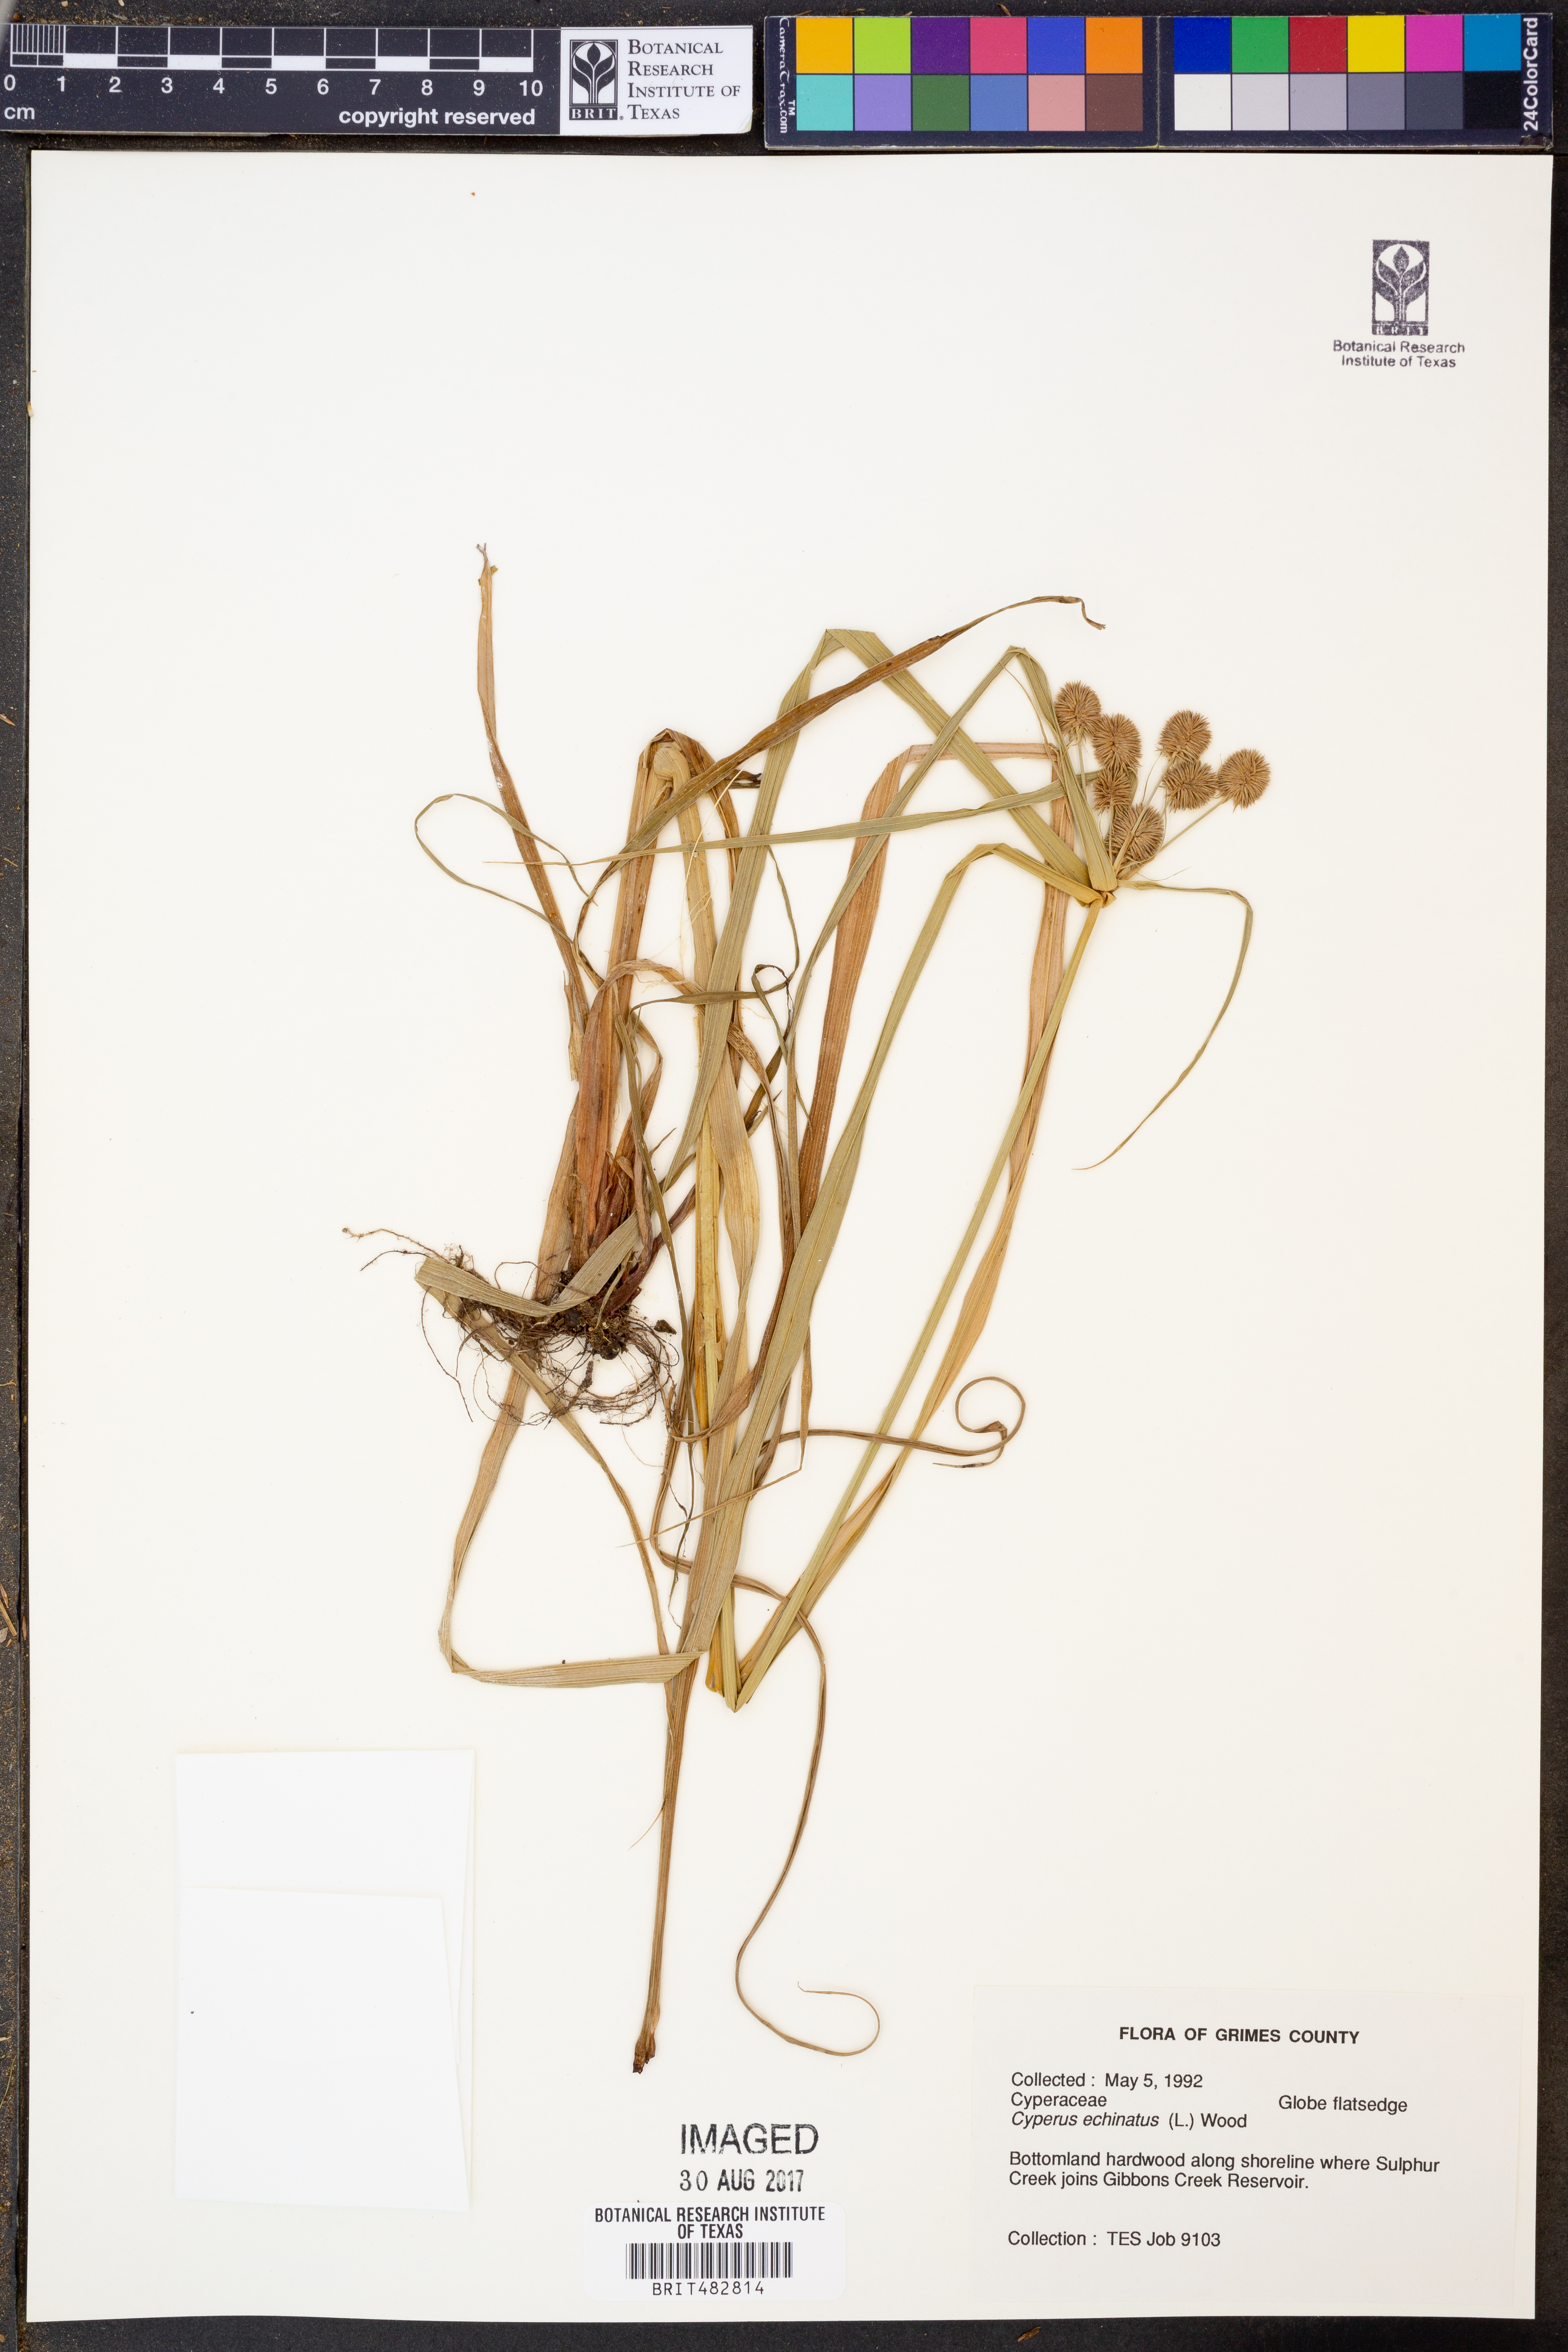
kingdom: Plantae
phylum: Tracheophyta
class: Liliopsida
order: Poales
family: Cyperaceae
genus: Cyperus
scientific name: Cyperus echinatus
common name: Teasel sedge
